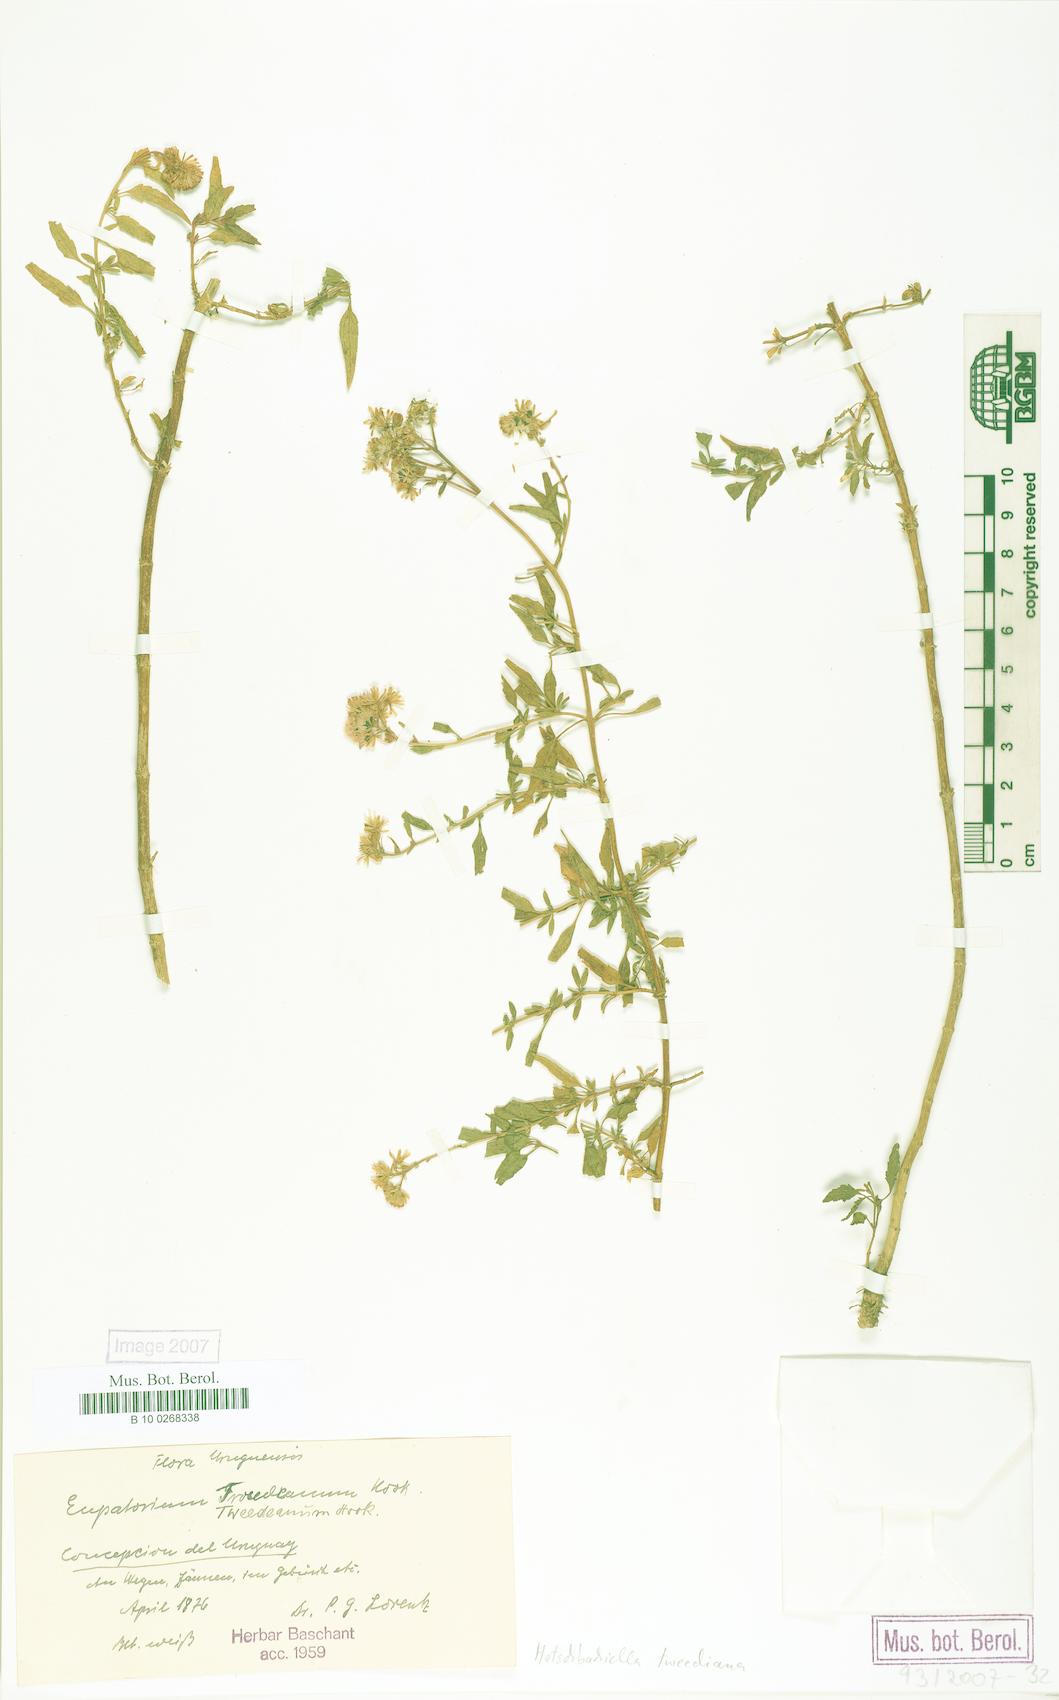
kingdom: Plantae
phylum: Tracheophyta
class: Magnoliopsida
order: Asterales
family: Asteraceae
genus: Hatschbachiella
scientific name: Hatschbachiella tweedieana
